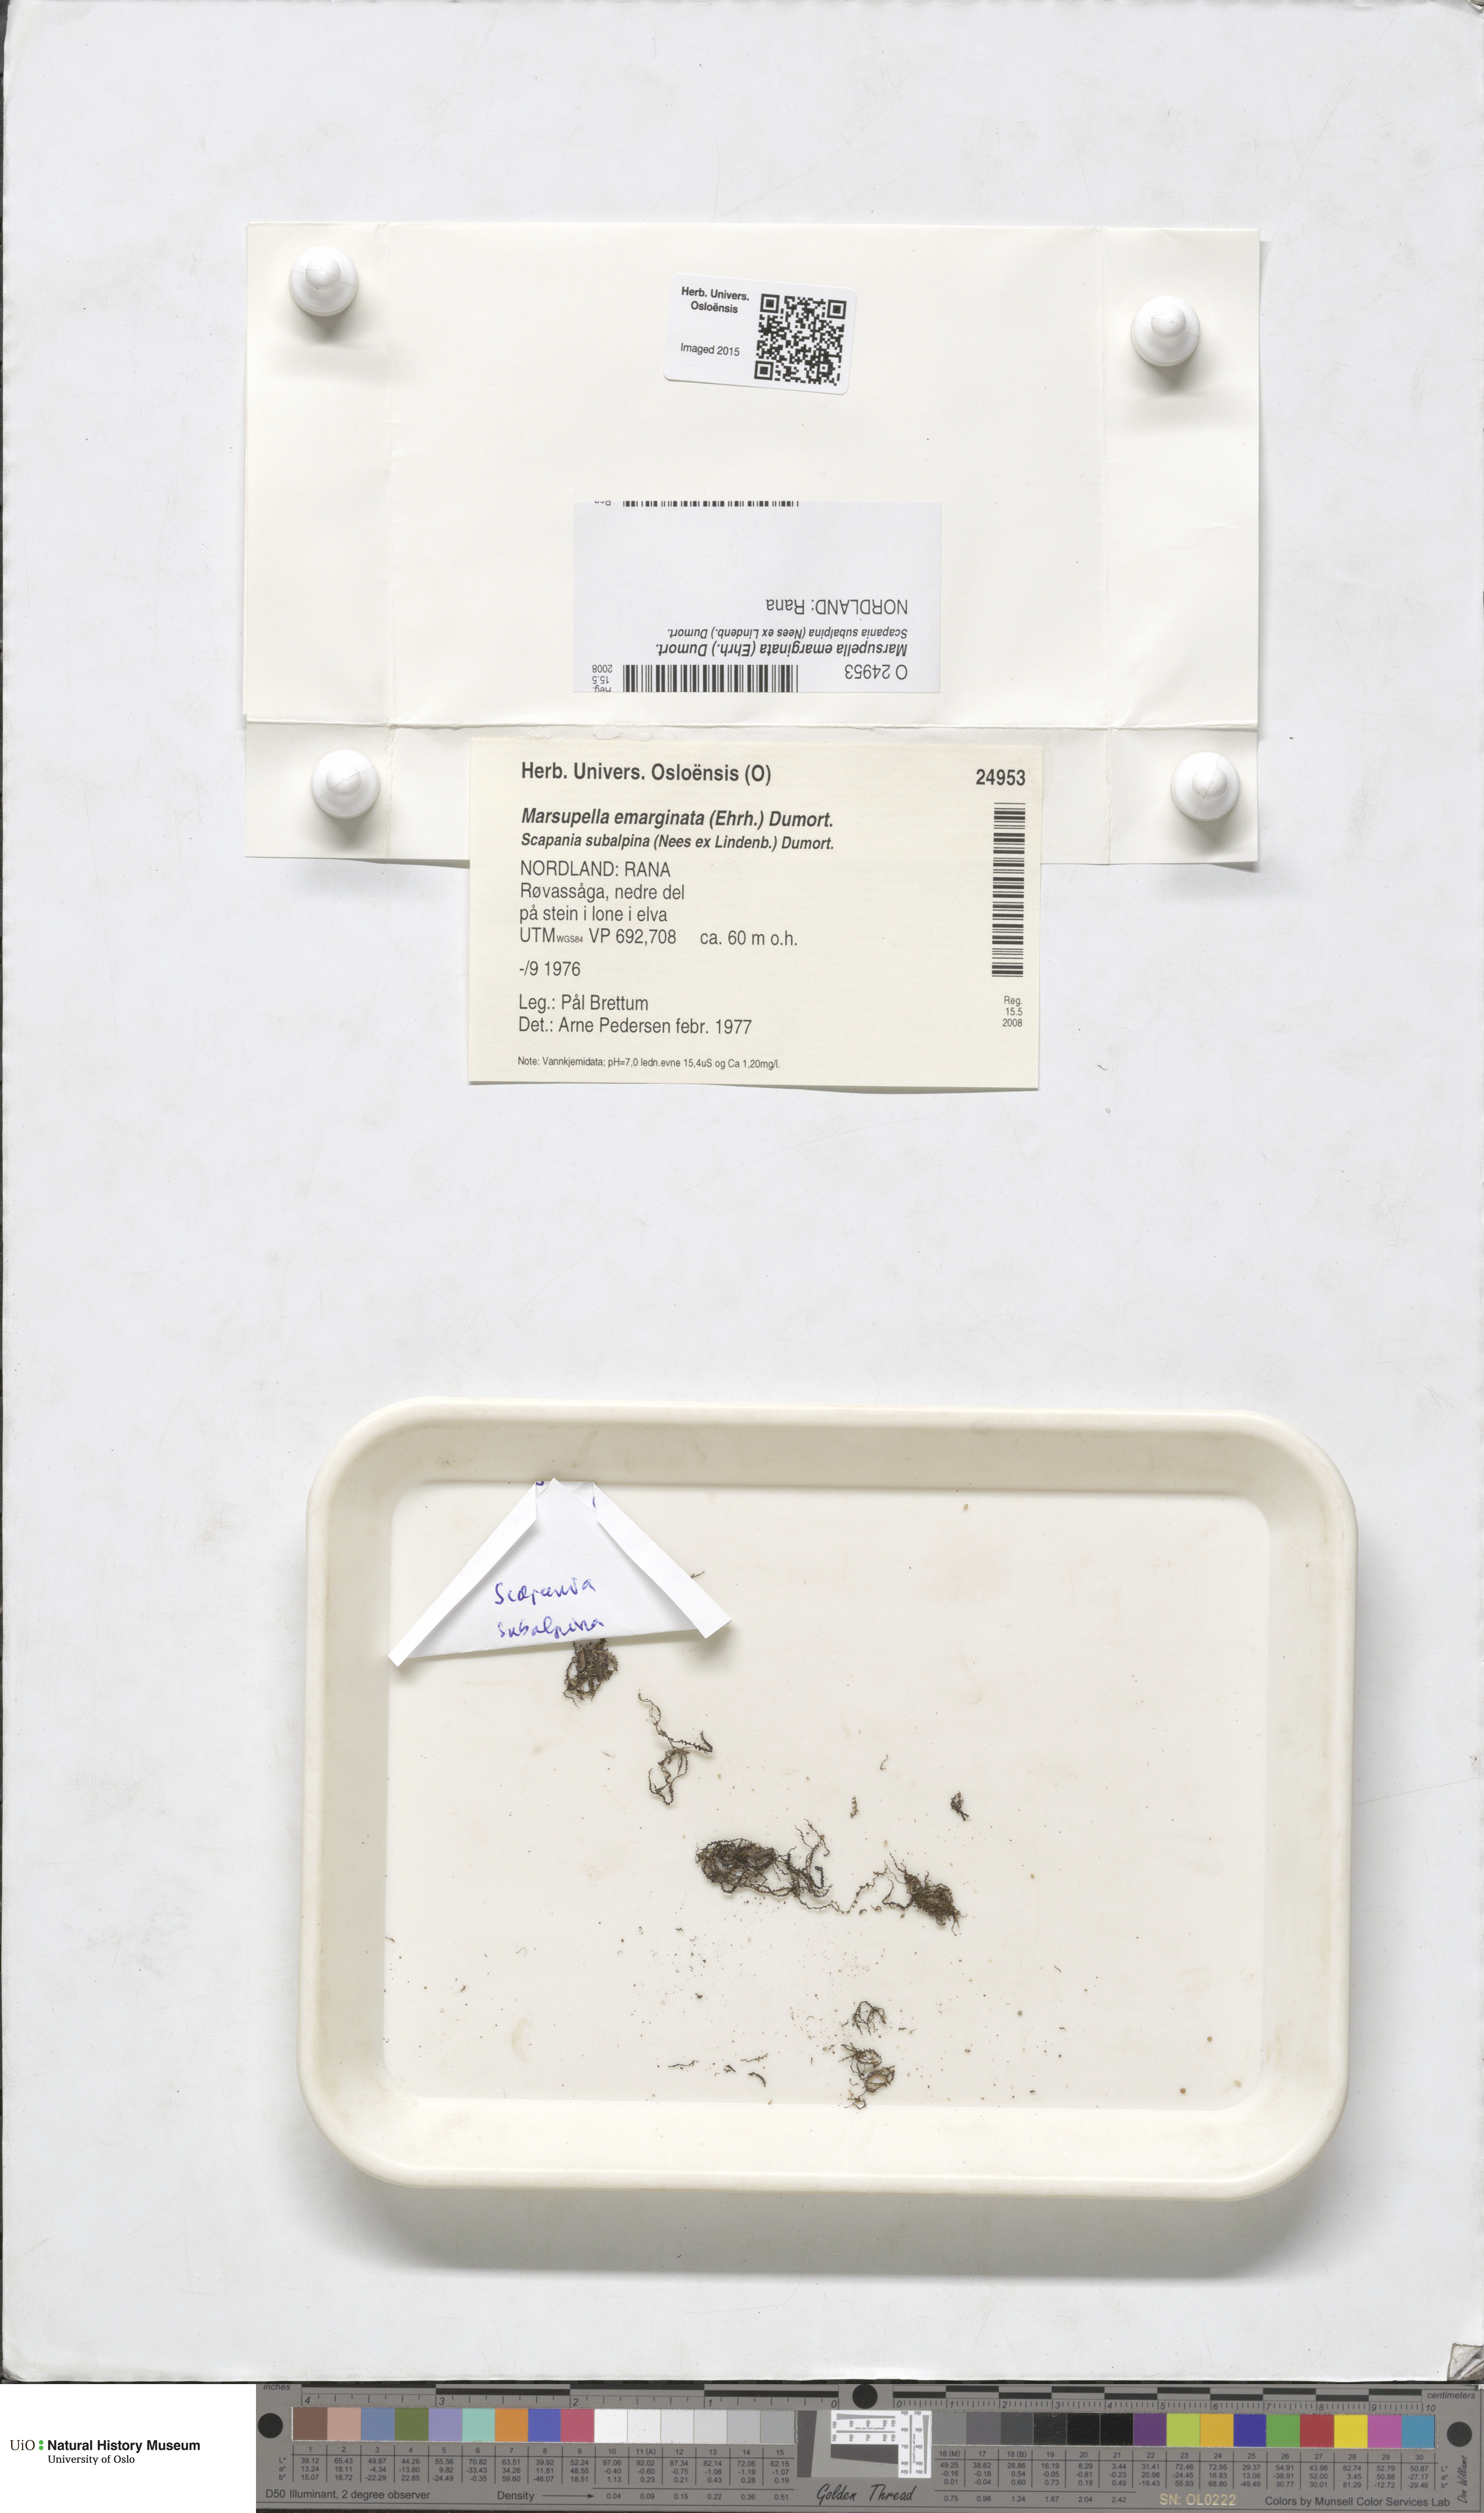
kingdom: Plantae
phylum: Marchantiophyta
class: Jungermanniopsida
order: Jungermanniales
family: Gymnomitriaceae
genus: Marsupella
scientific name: Marsupella emarginata
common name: Notched rustwort
